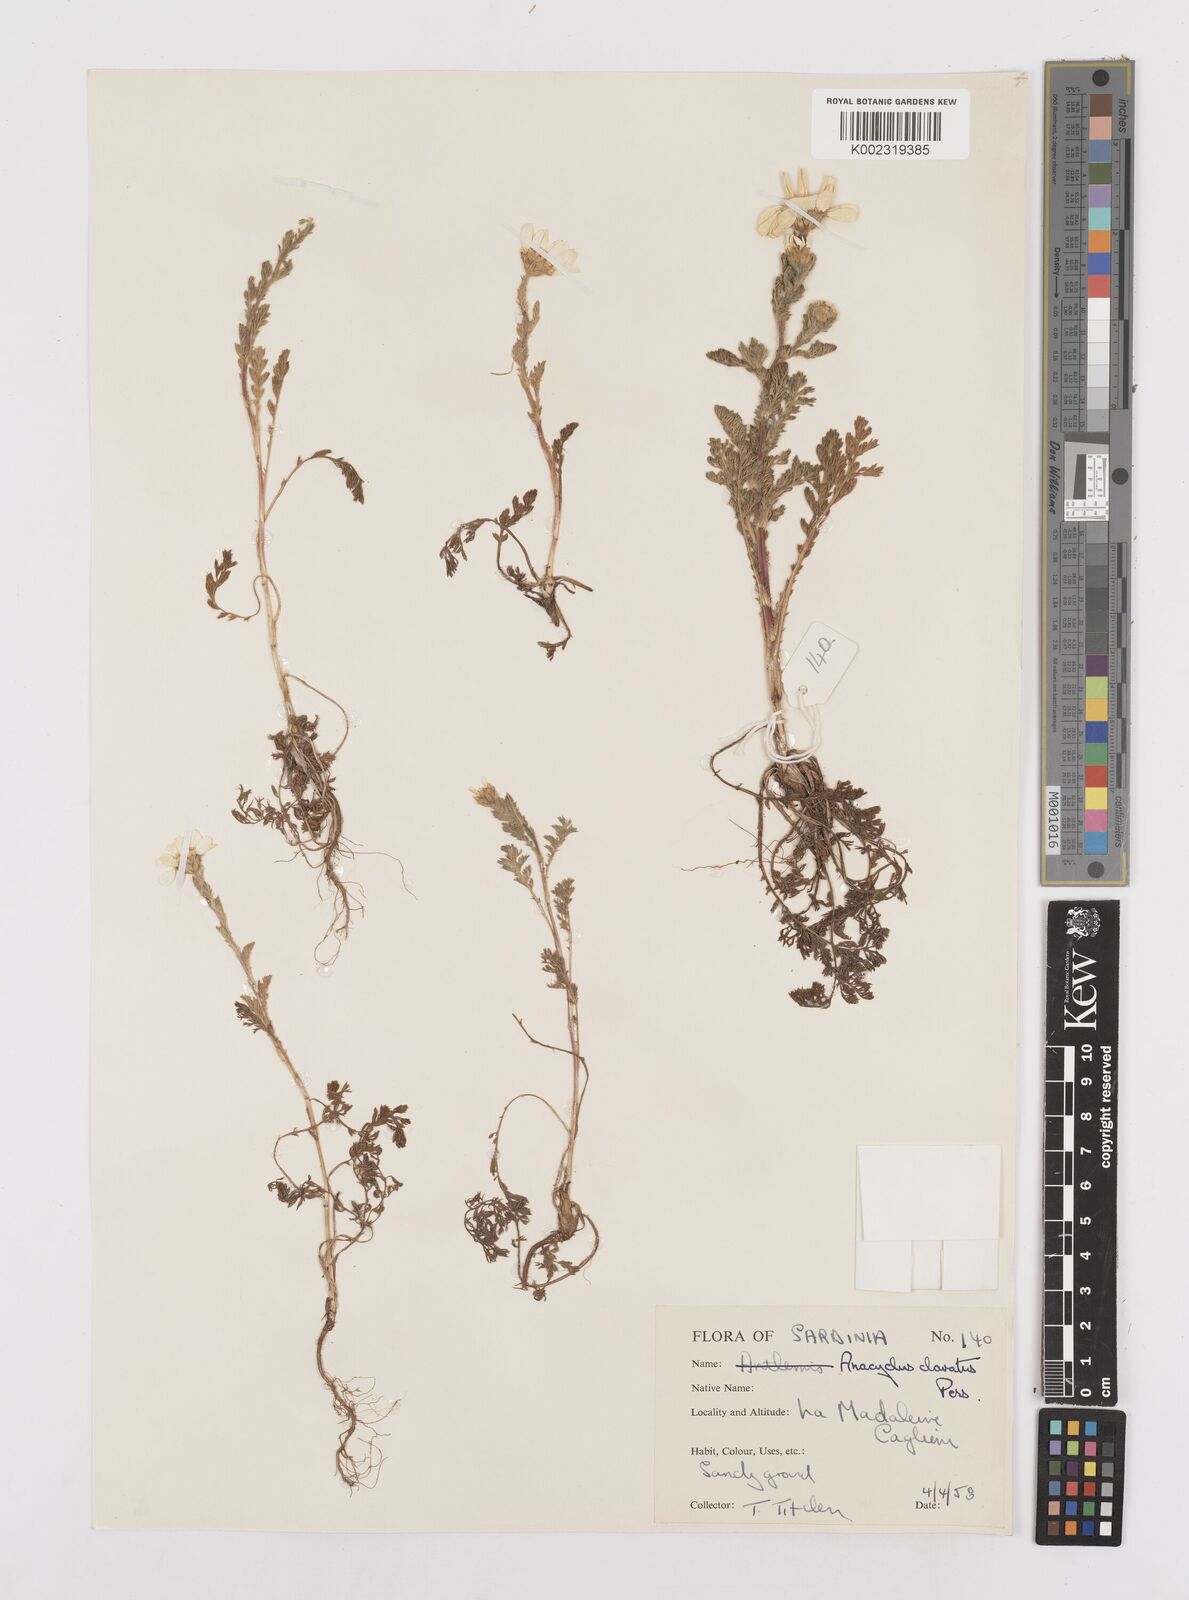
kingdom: Plantae
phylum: Tracheophyta
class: Magnoliopsida
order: Asterales
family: Asteraceae
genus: Anacyclus
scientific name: Anacyclus clavatus
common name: Whitebuttons
